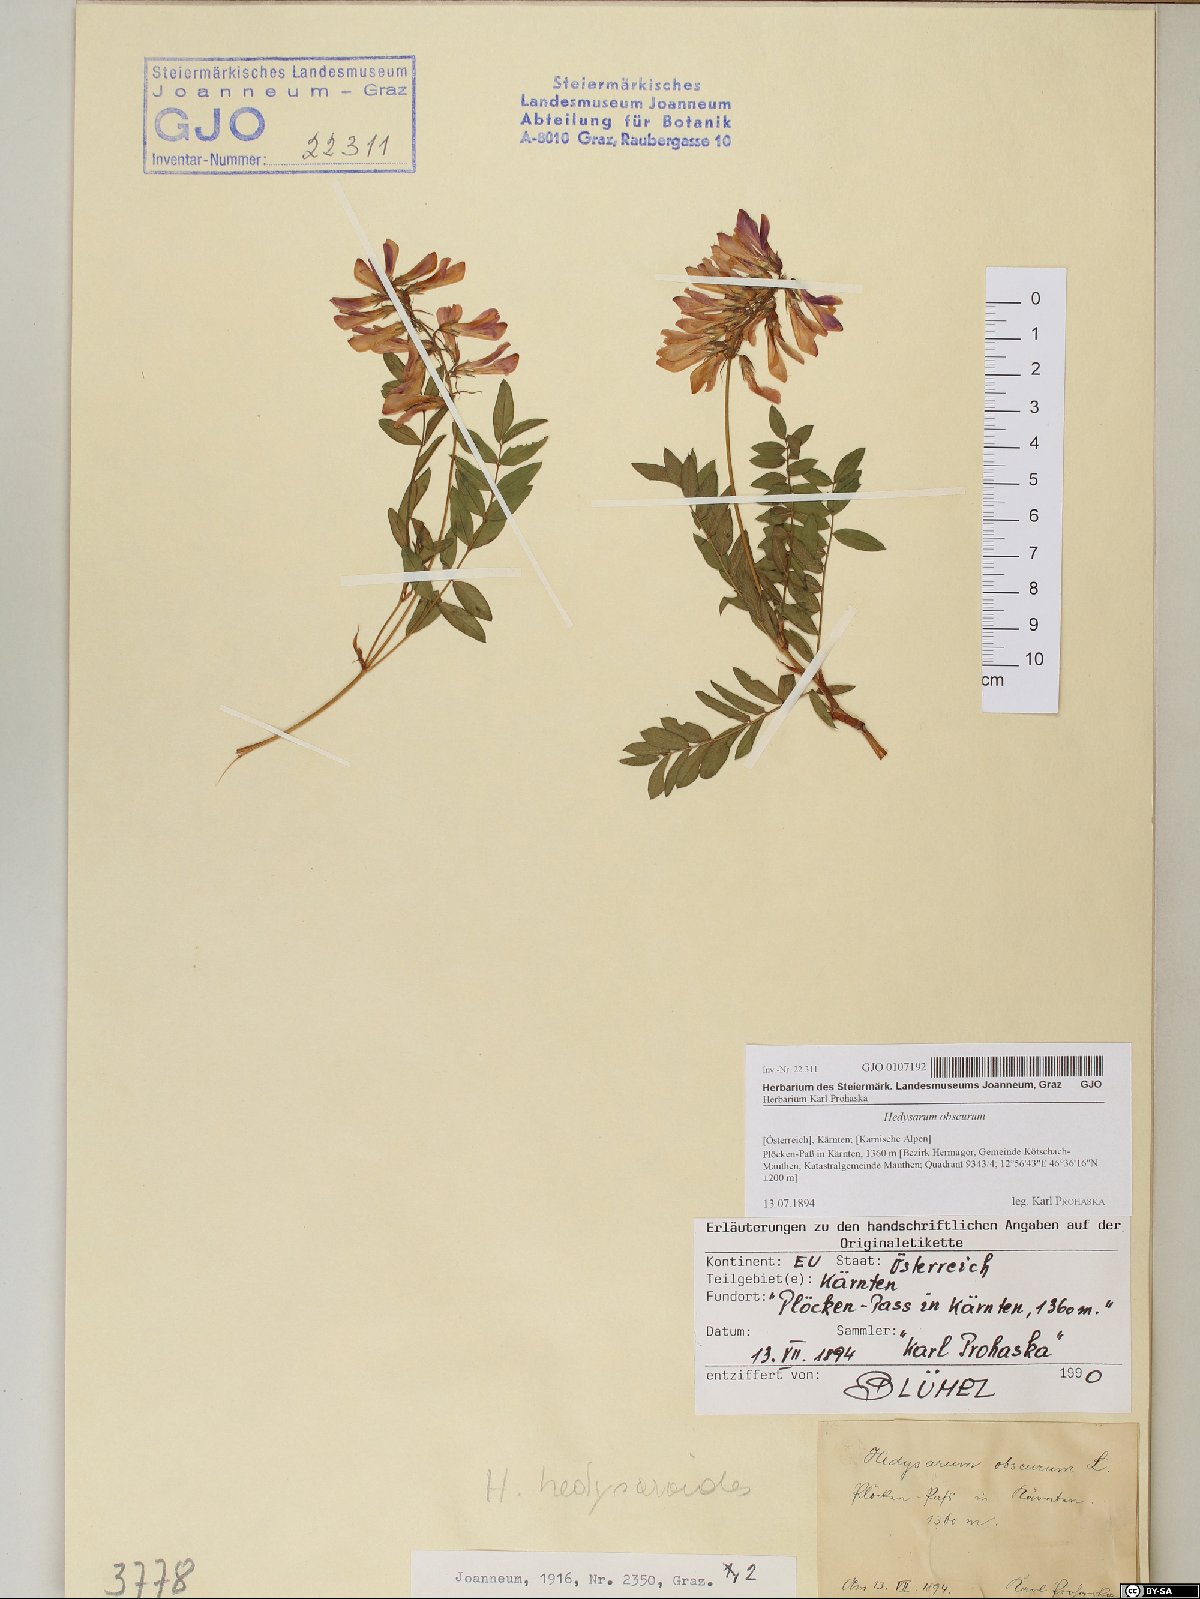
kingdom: Plantae
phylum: Tracheophyta
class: Magnoliopsida
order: Fabales
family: Fabaceae
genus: Hedysarum
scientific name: Hedysarum hedysaroides
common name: Alpine french-honeysuckle
